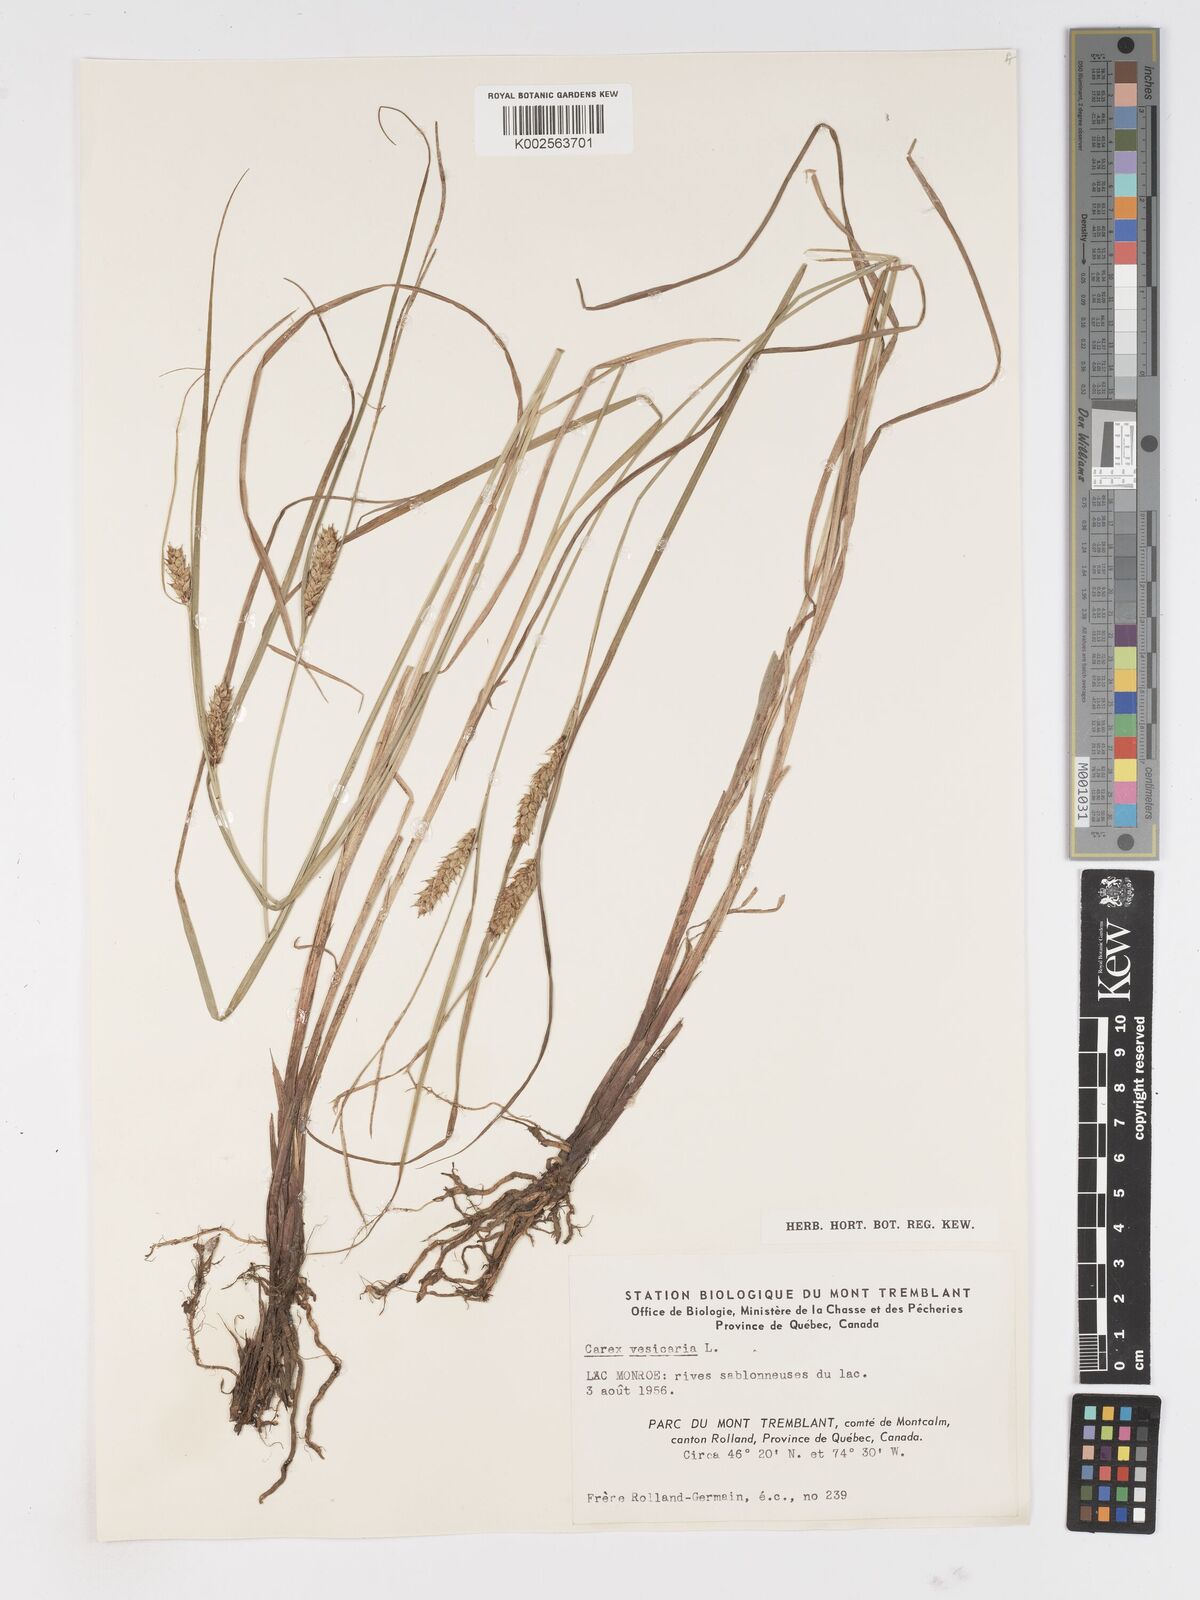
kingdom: Plantae
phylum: Tracheophyta
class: Liliopsida
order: Poales
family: Cyperaceae
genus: Carex
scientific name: Carex vesicaria
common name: Bladder-sedge
